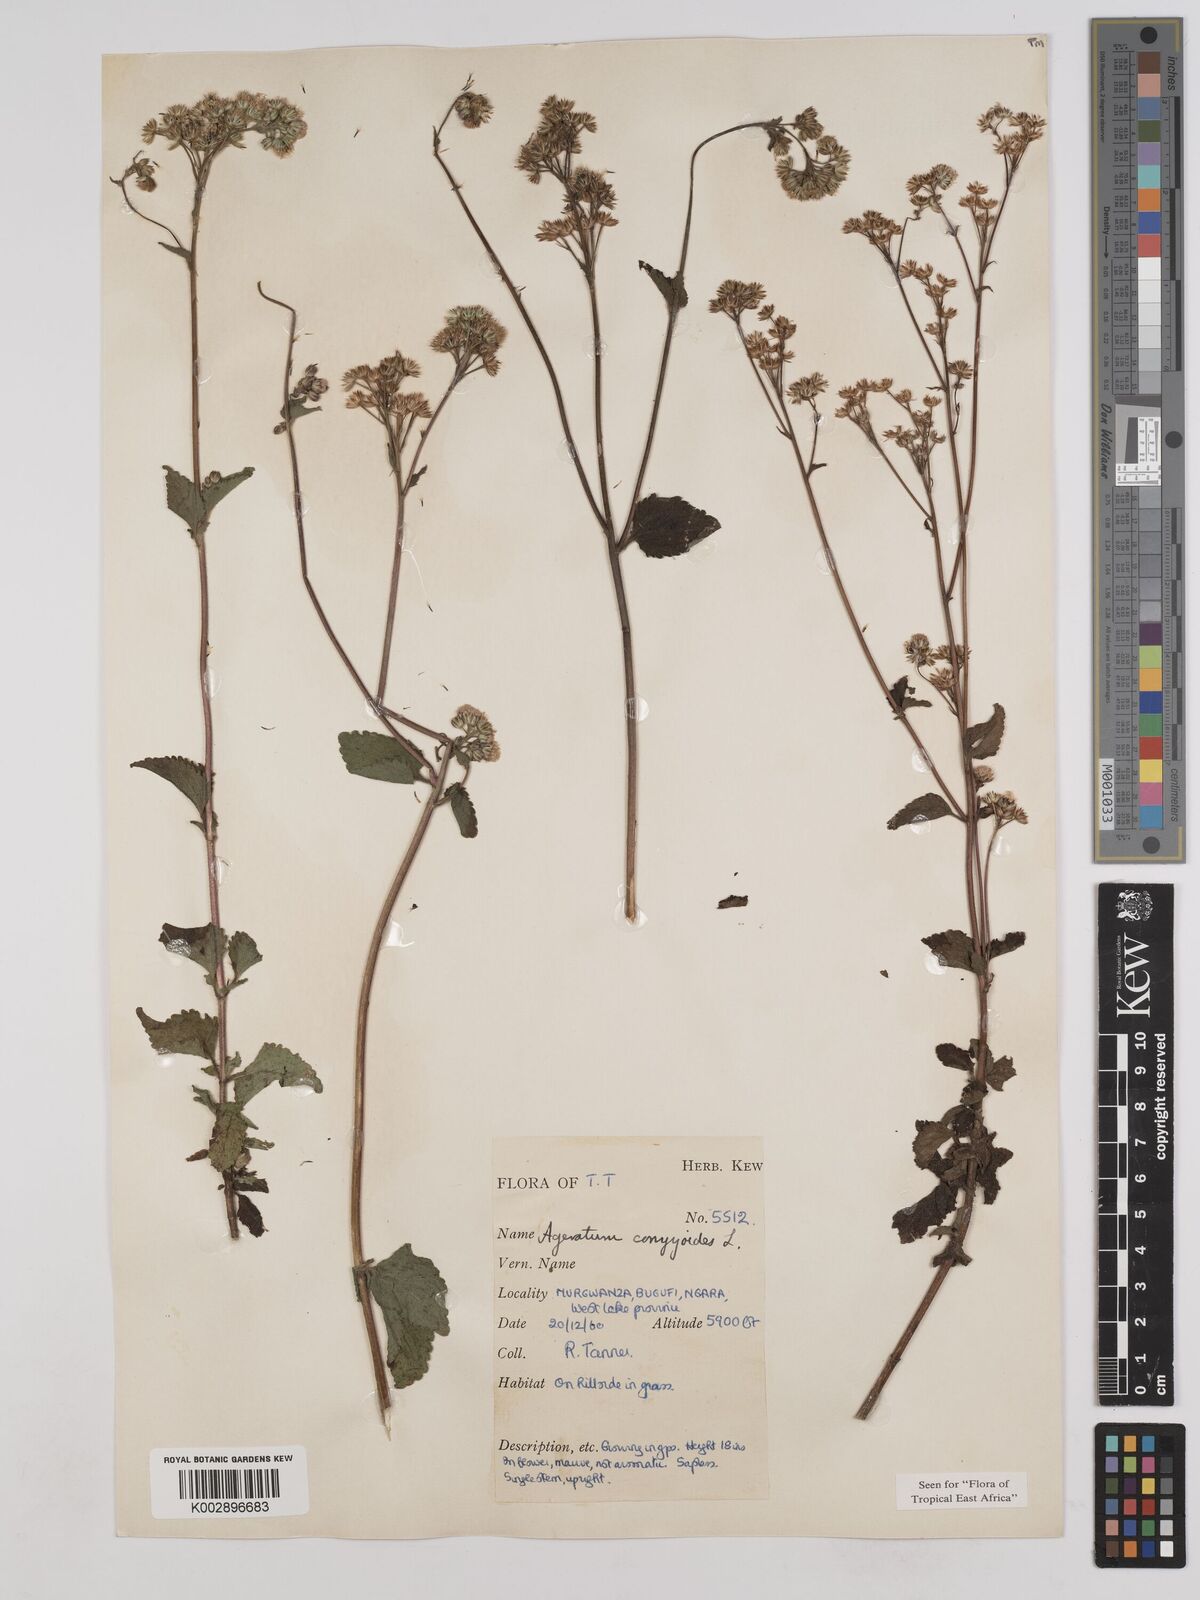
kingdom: Plantae
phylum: Tracheophyta
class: Magnoliopsida
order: Asterales
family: Asteraceae
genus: Ageratum
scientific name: Ageratum conyzoides
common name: Tropical whiteweed
